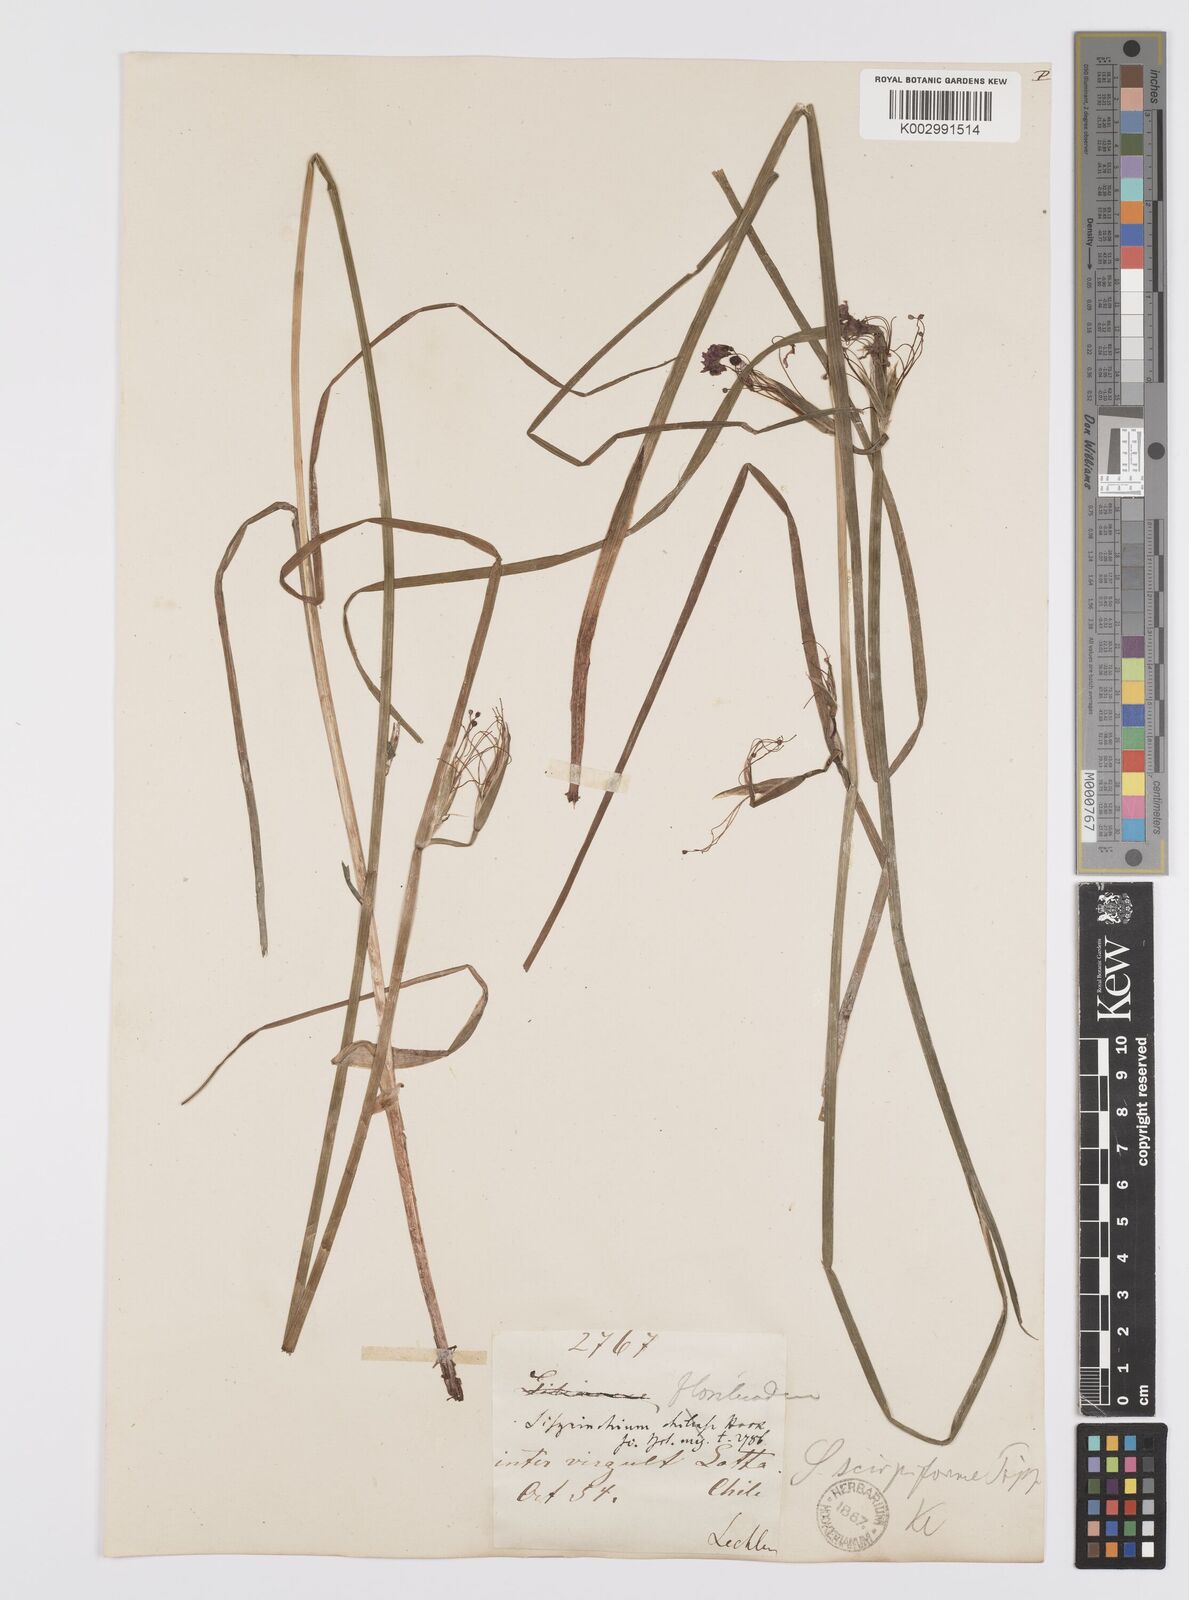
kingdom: Plantae
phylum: Tracheophyta
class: Liliopsida
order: Asparagales
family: Iridaceae
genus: Olsynium
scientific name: Olsynium junceum
